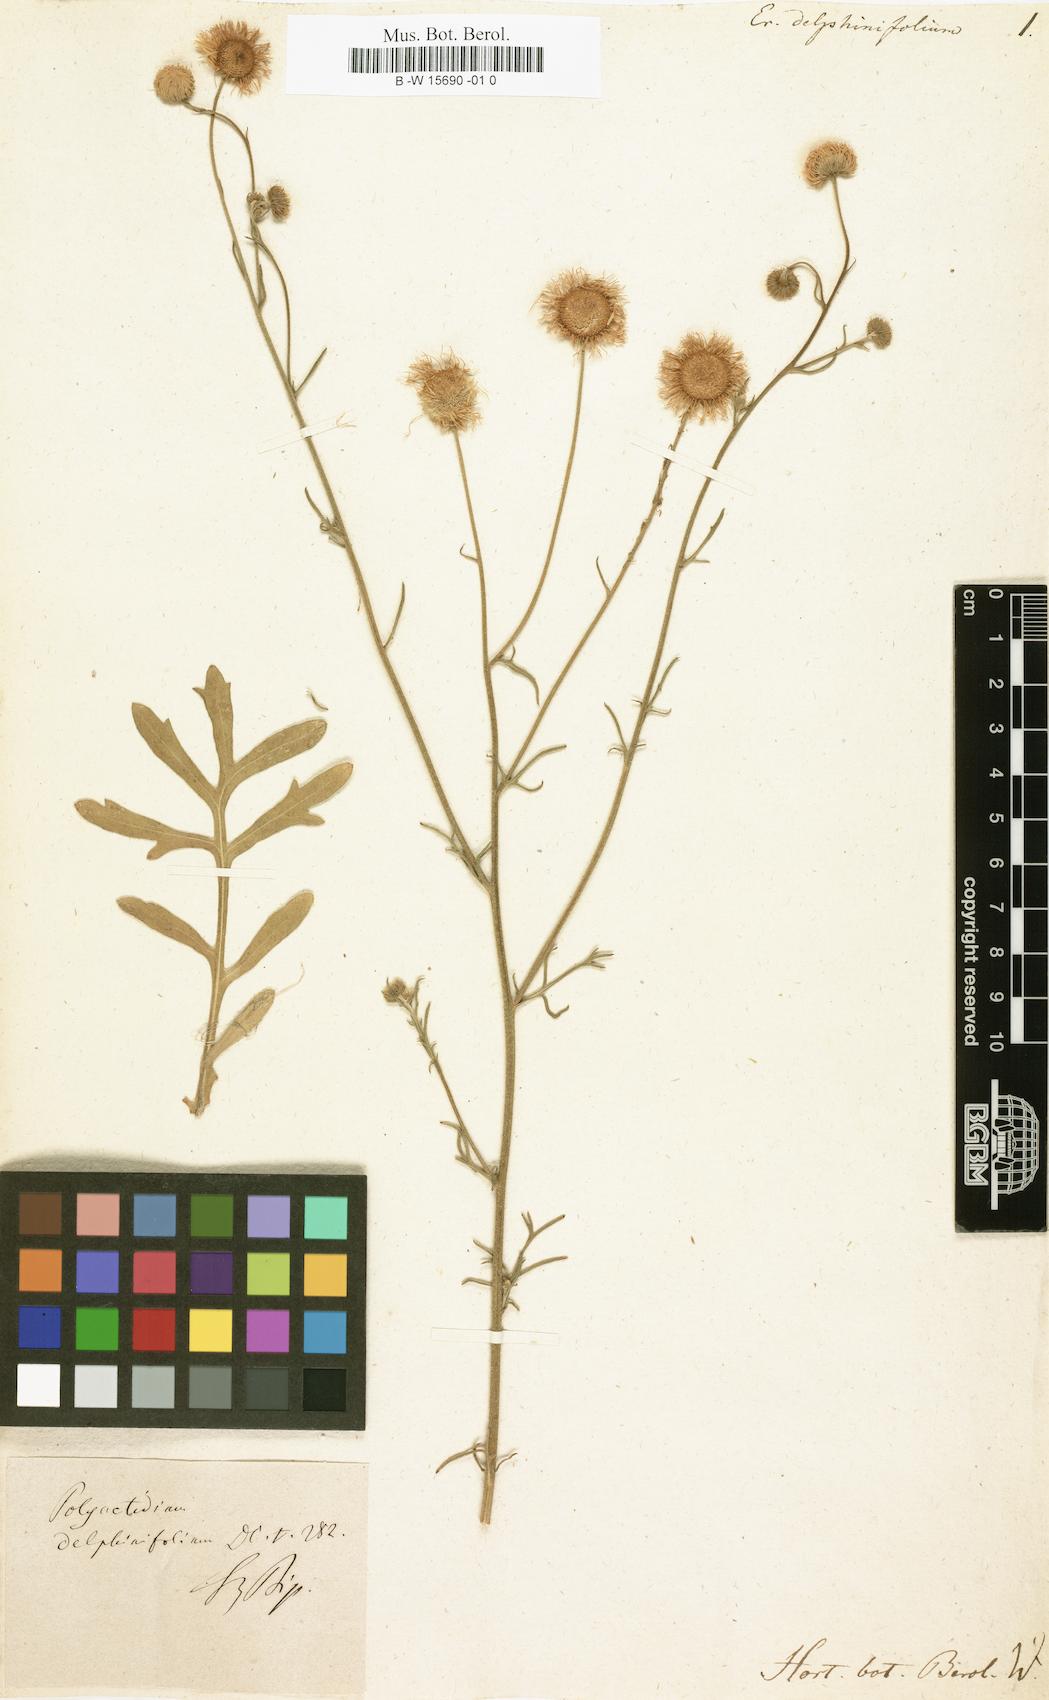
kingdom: Plantae
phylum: Tracheophyta
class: Magnoliopsida
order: Asterales
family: Asteraceae
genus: Erigeron
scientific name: Erigeron delphinifolius
